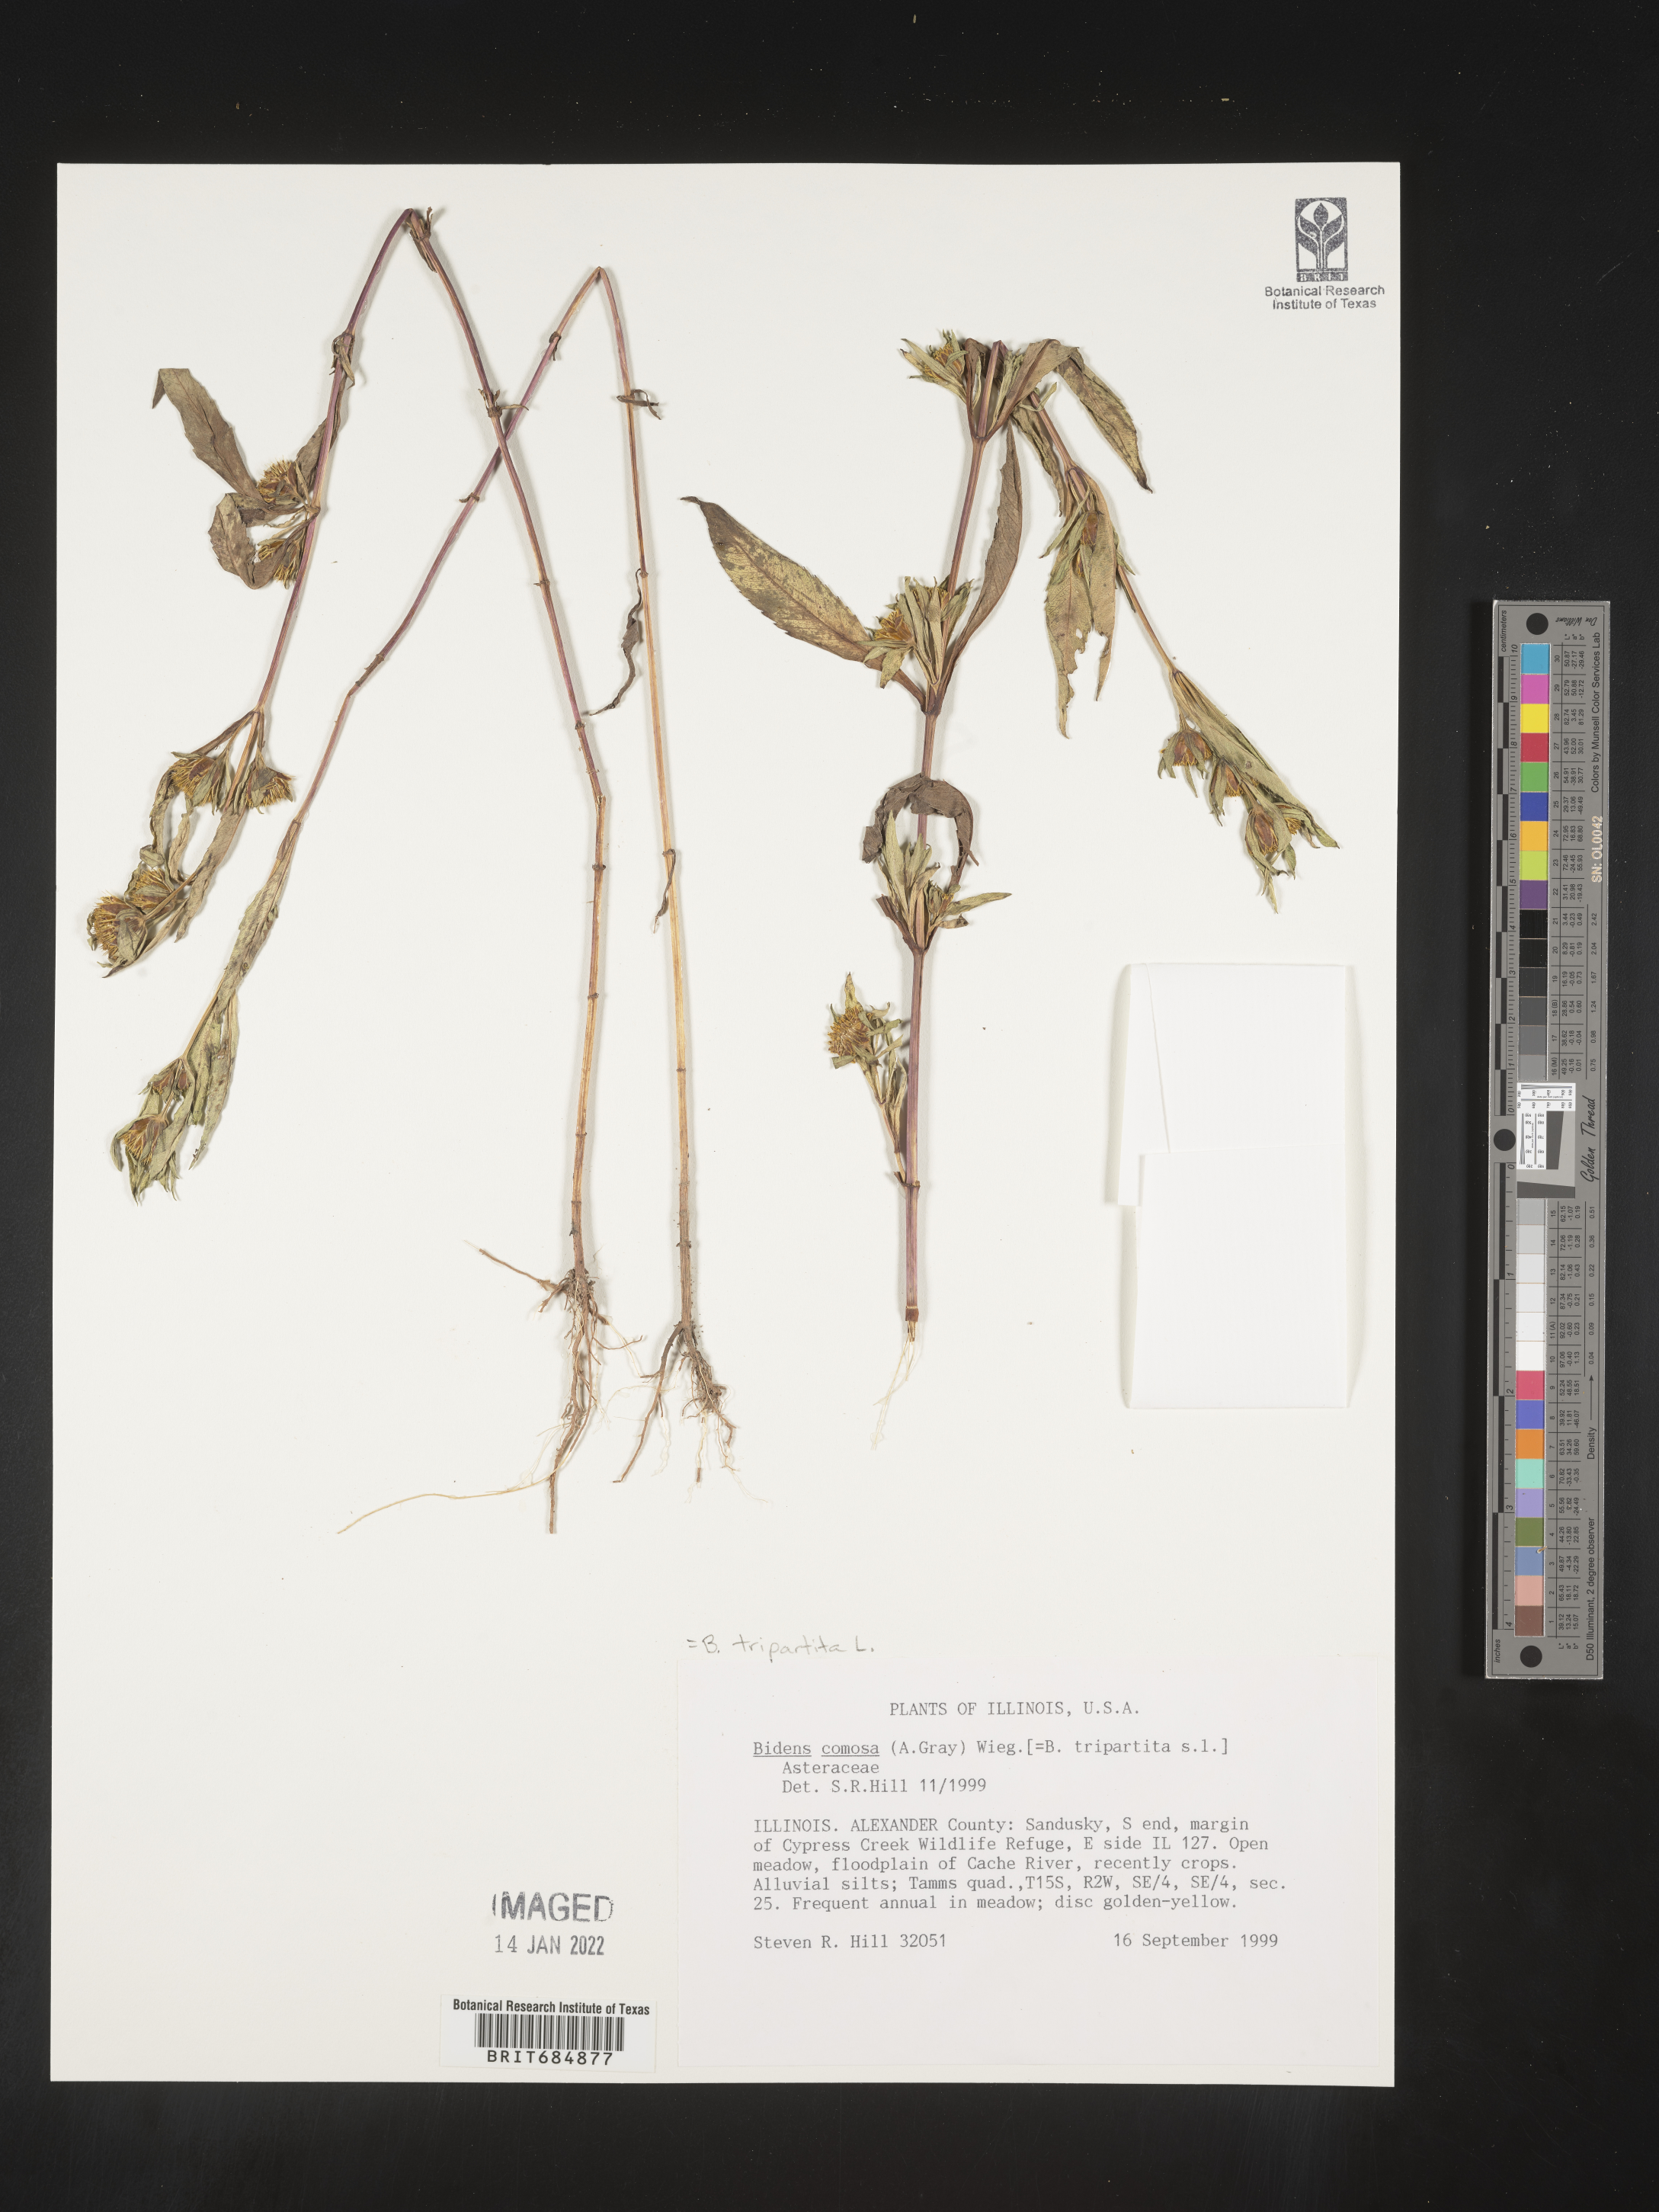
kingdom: Plantae
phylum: Tracheophyta
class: Magnoliopsida
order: Asterales
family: Asteraceae
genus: Bidens
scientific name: Bidens tripartita
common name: Trifid bur-marigold
